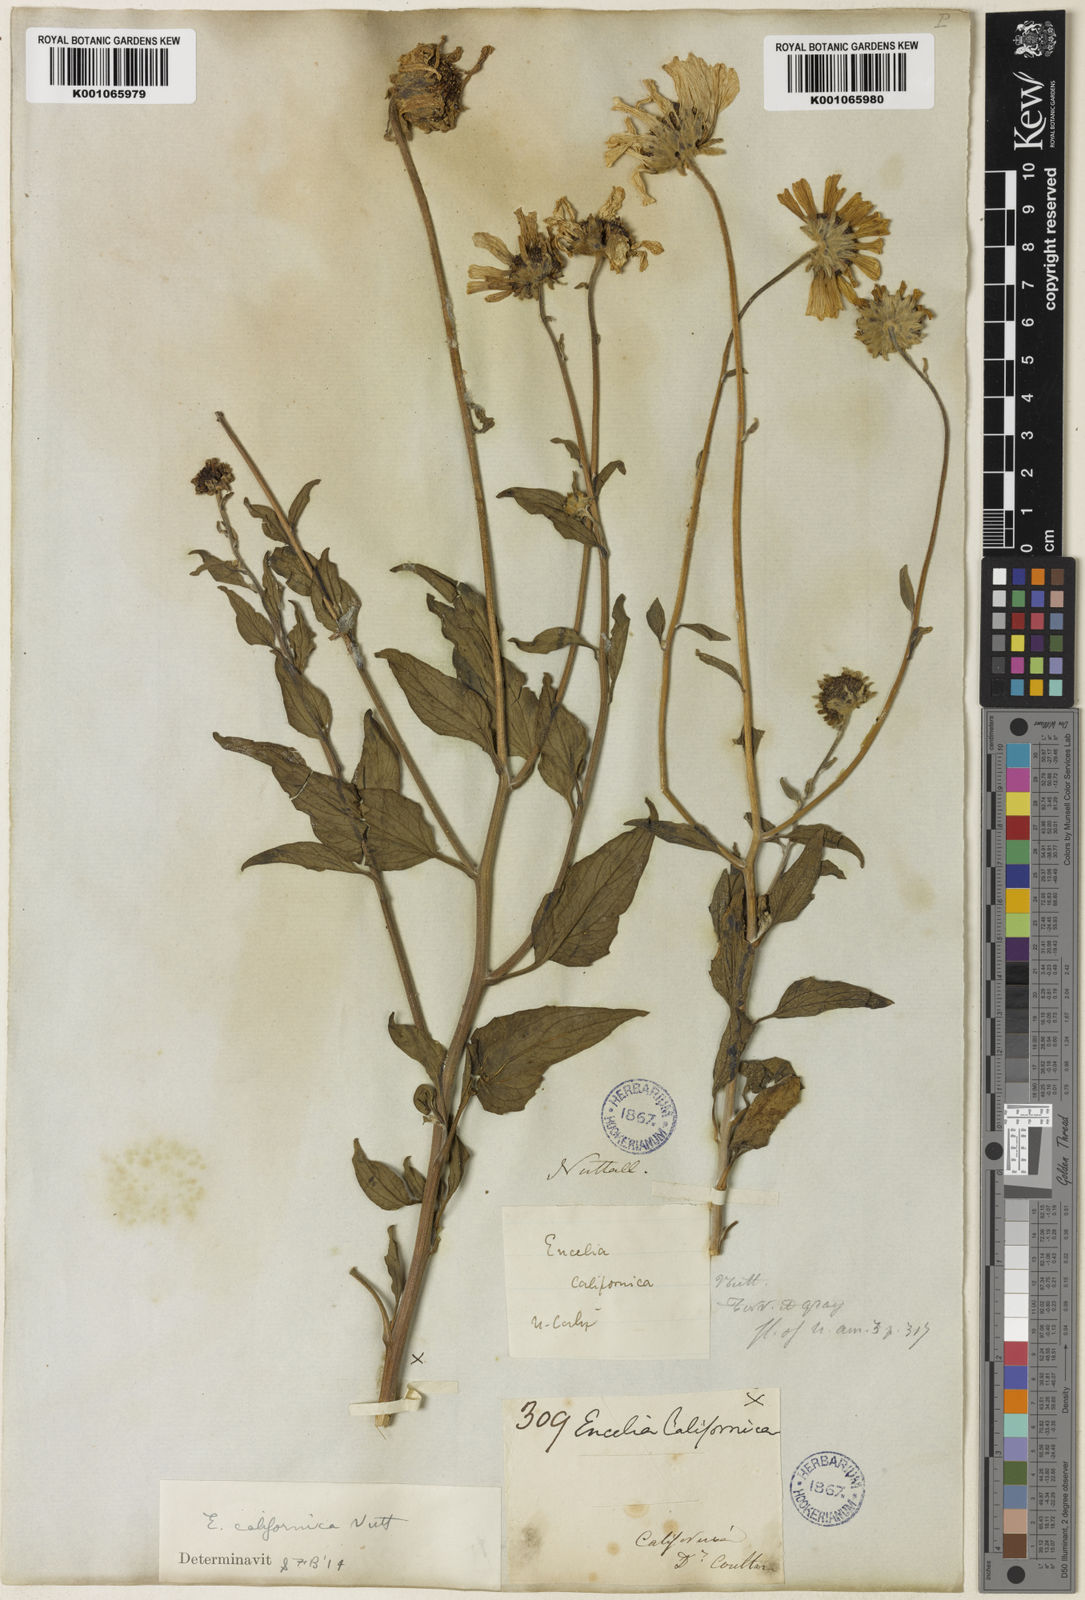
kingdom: Plantae
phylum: Tracheophyta
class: Magnoliopsida
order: Asterales
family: Asteraceae
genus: Encelia
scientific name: Encelia californica
